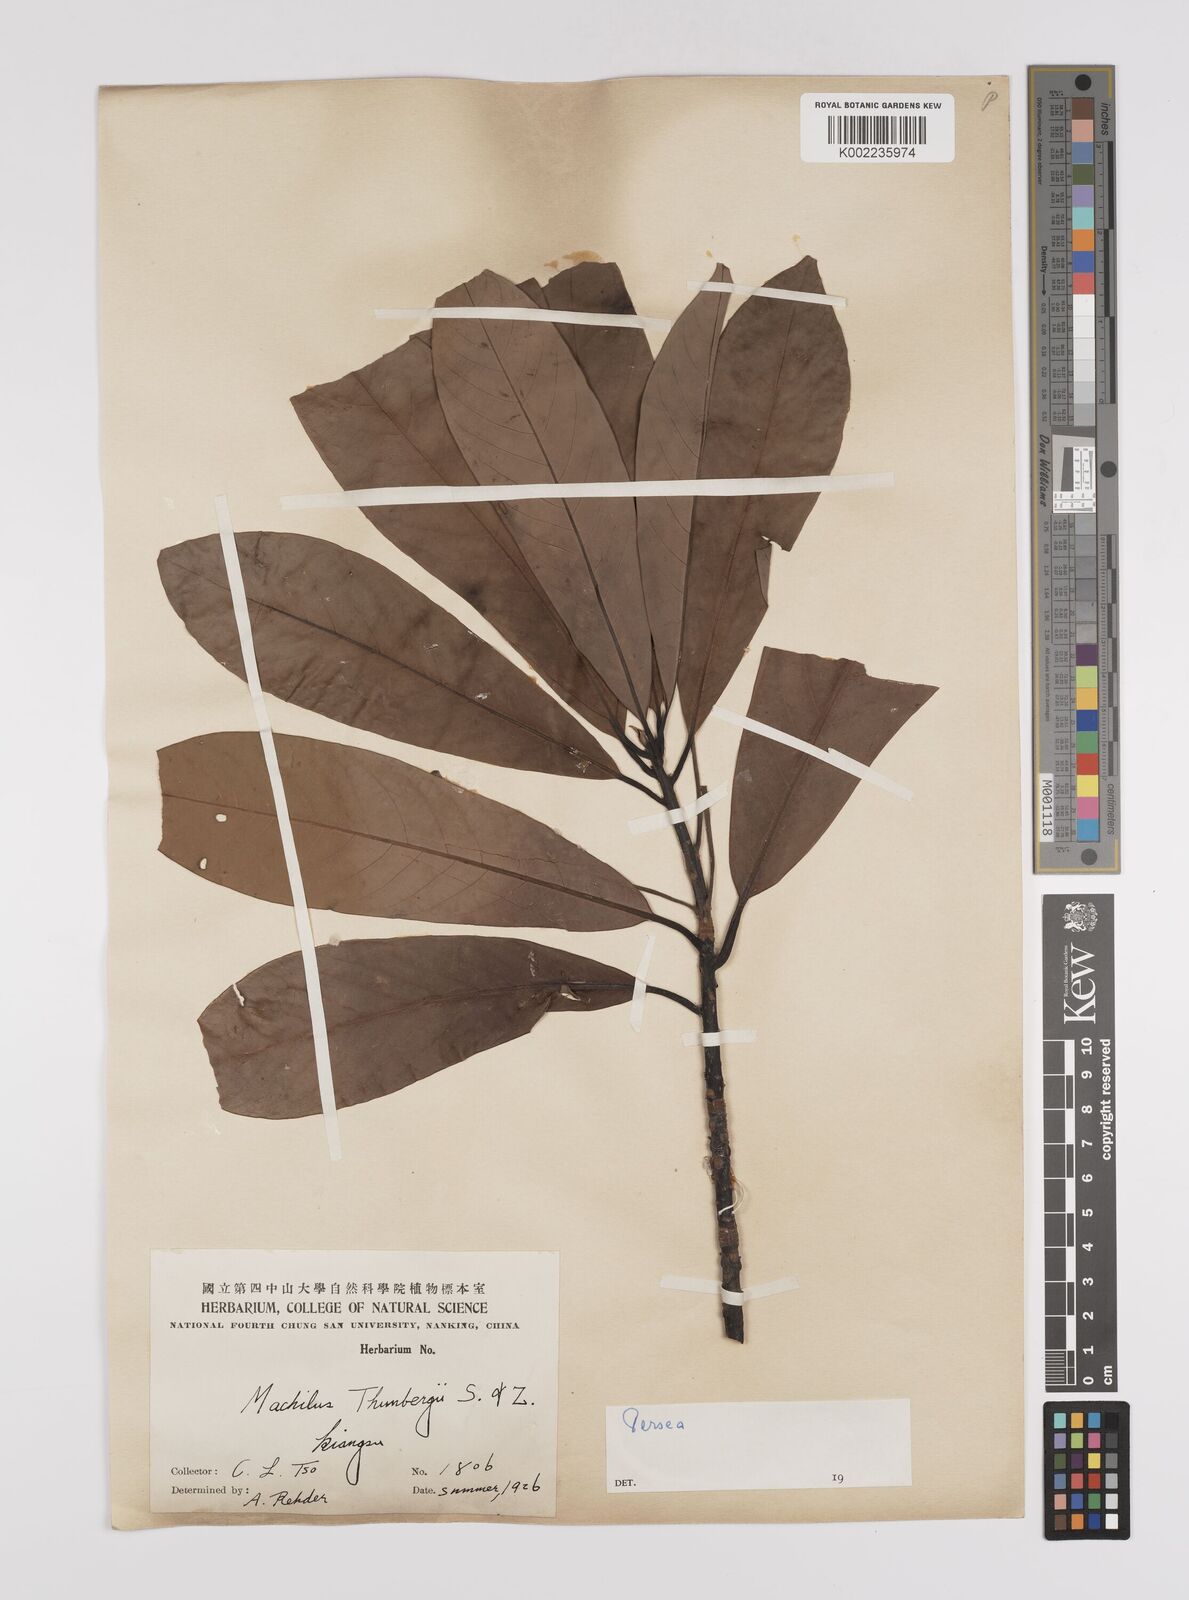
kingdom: Plantae
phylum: Tracheophyta
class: Magnoliopsida
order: Laurales
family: Lauraceae
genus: Persea
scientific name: Persea
